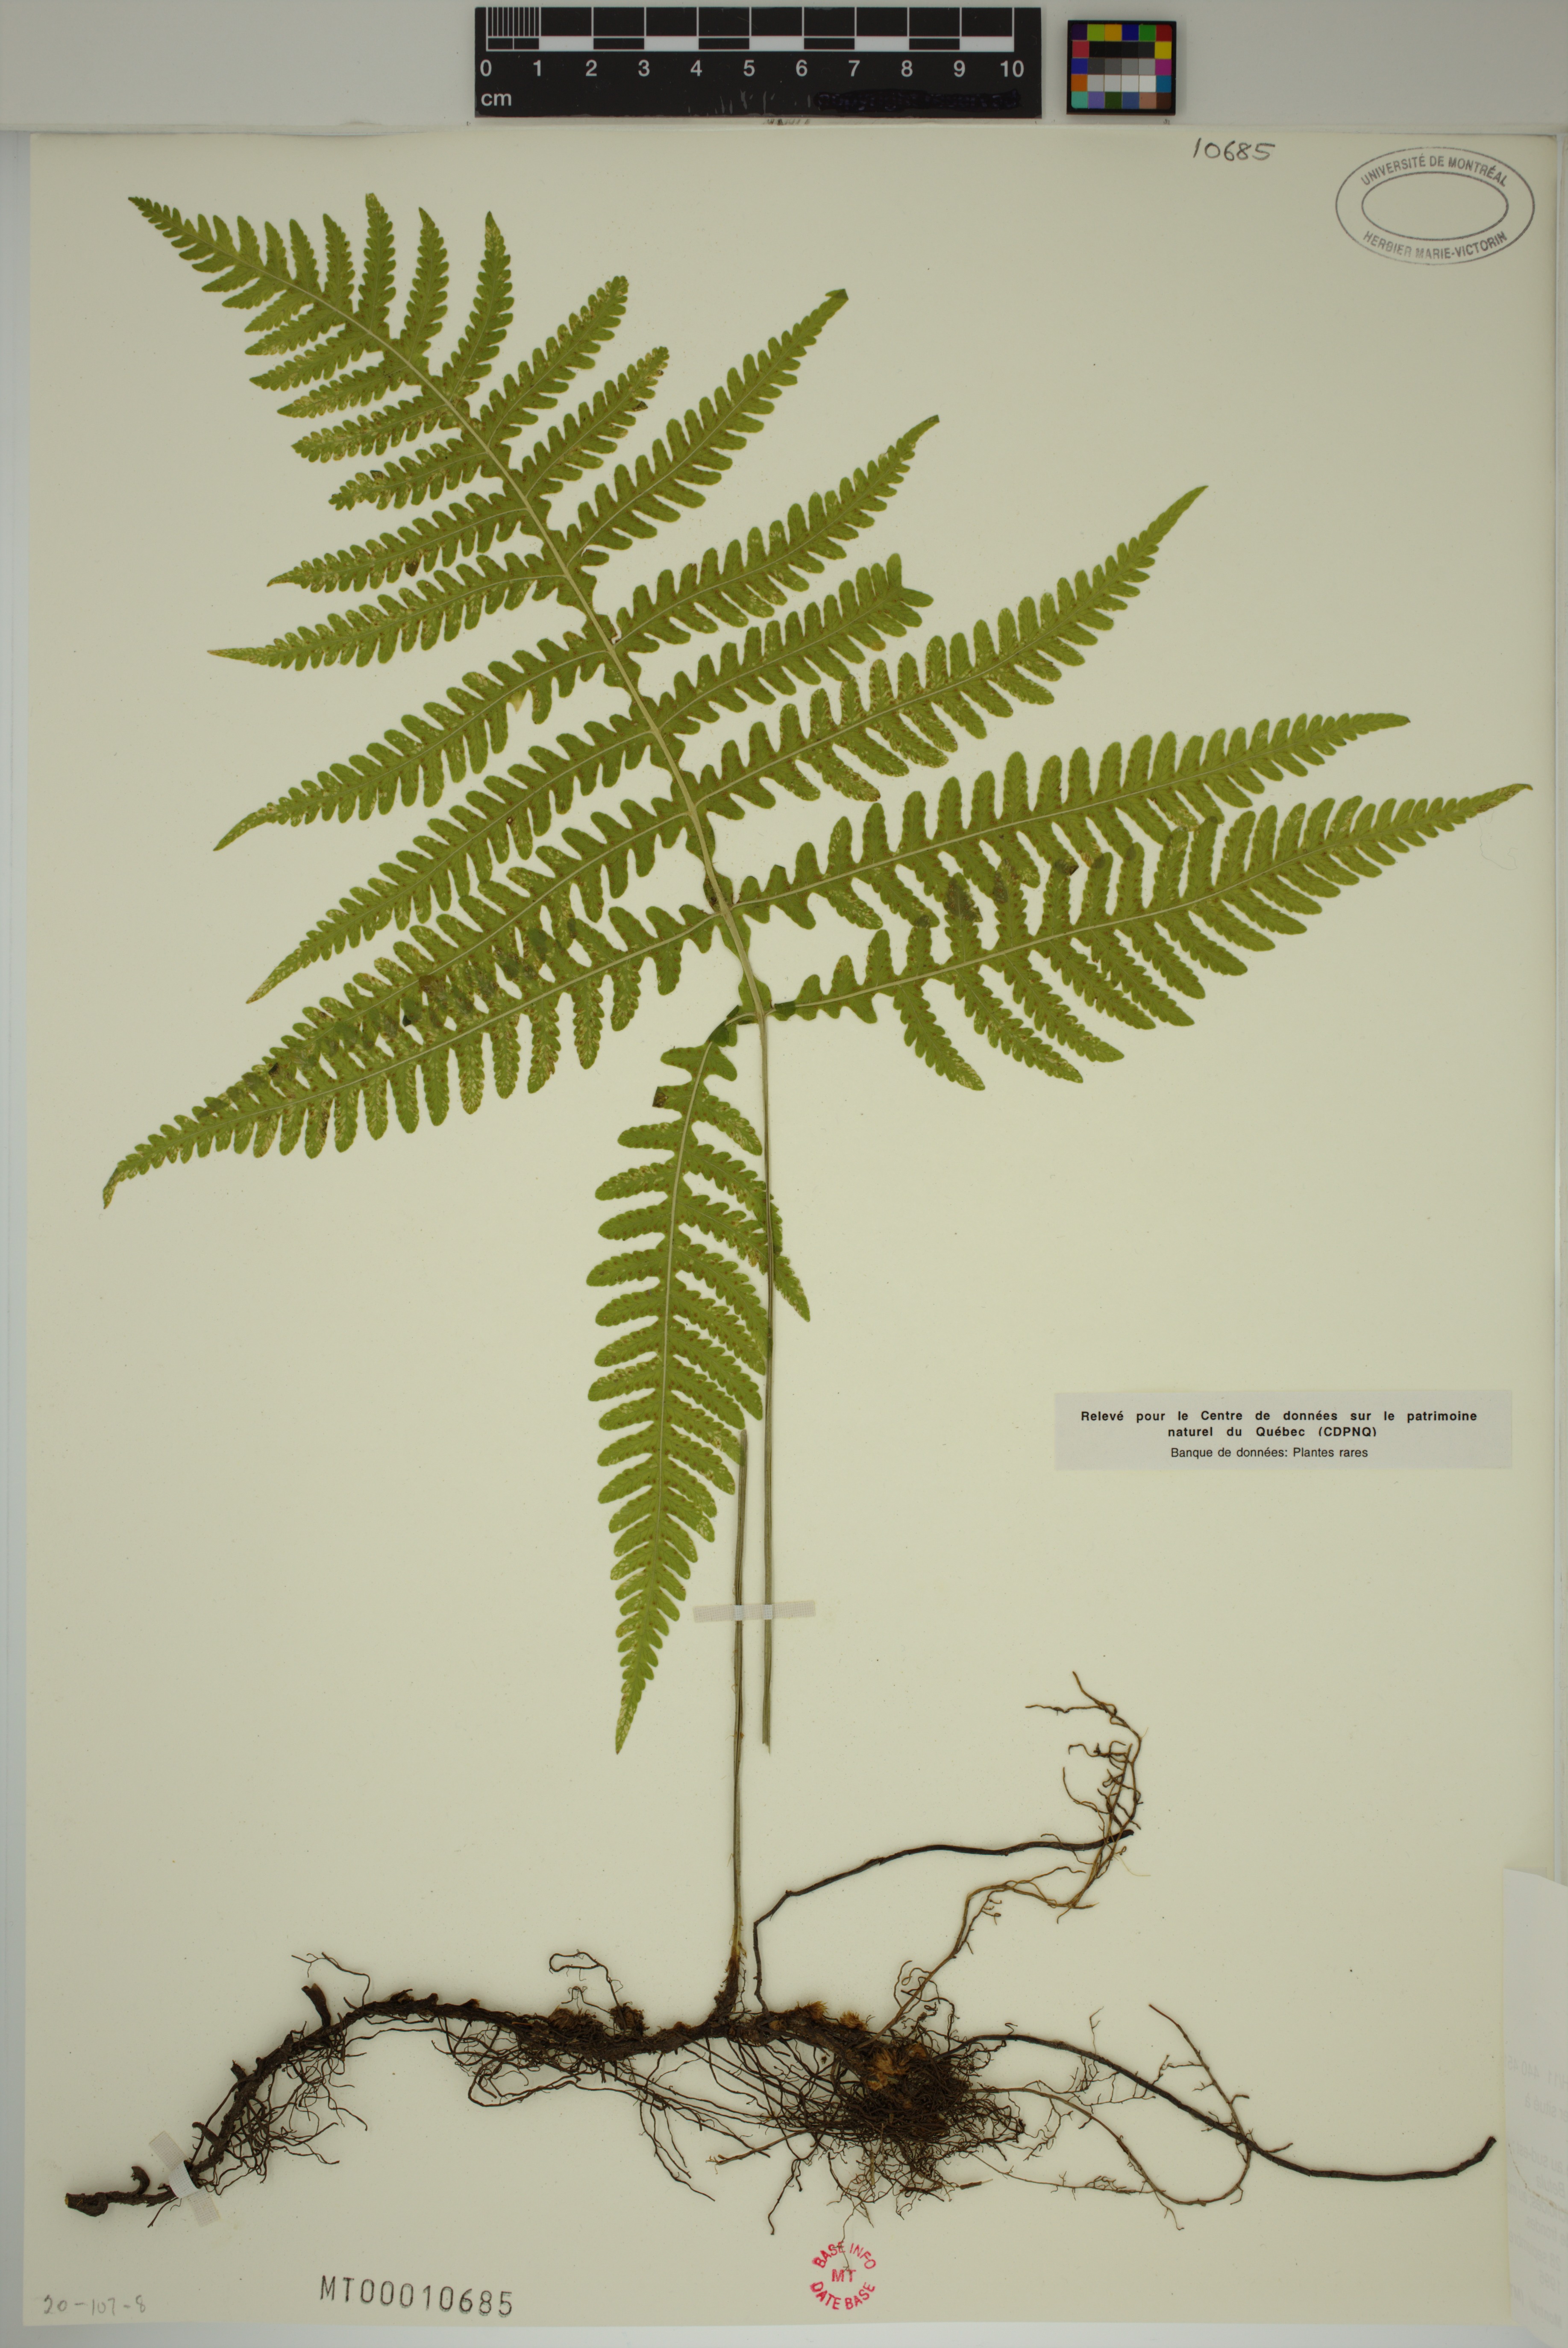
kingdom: Plantae
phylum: Tracheophyta
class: Polypodiopsida
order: Polypodiales
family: Thelypteridaceae
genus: Phegopteris
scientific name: Phegopteris hexagonoptera
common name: Broad beech fern
